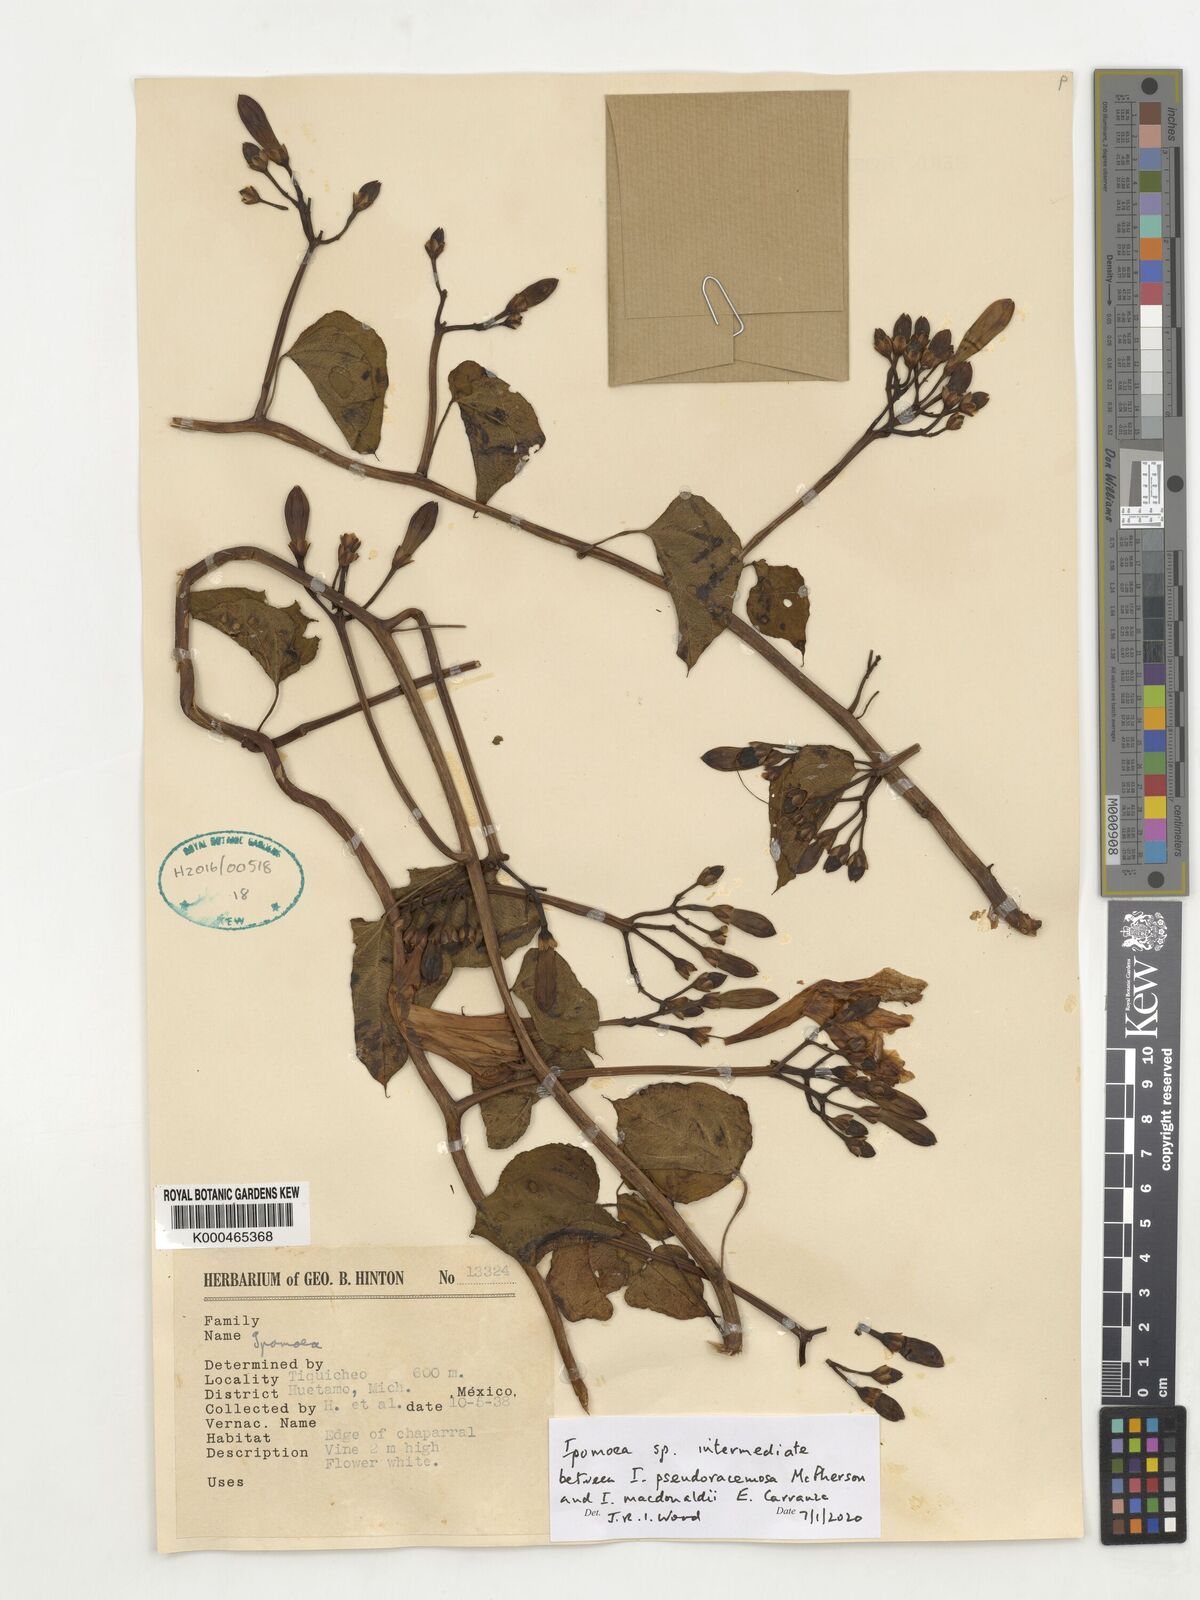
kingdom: Plantae
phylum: Tracheophyta
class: Magnoliopsida
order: Solanales
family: Convolvulaceae
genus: Ipomoea
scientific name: Ipomoea
